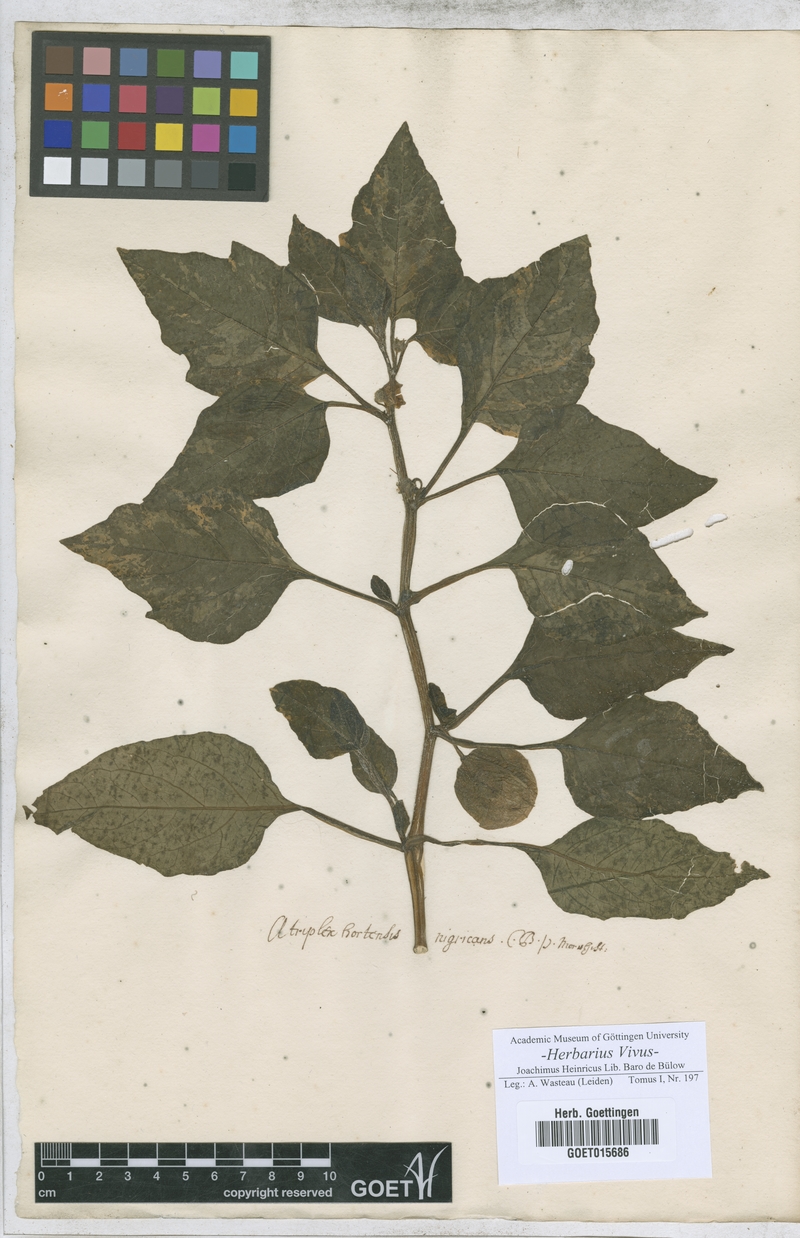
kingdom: Plantae
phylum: Tracheophyta
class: Magnoliopsida
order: Caryophyllales
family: Amaranthaceae
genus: Atriplex
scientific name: Atriplex hortensis
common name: Garden orache
